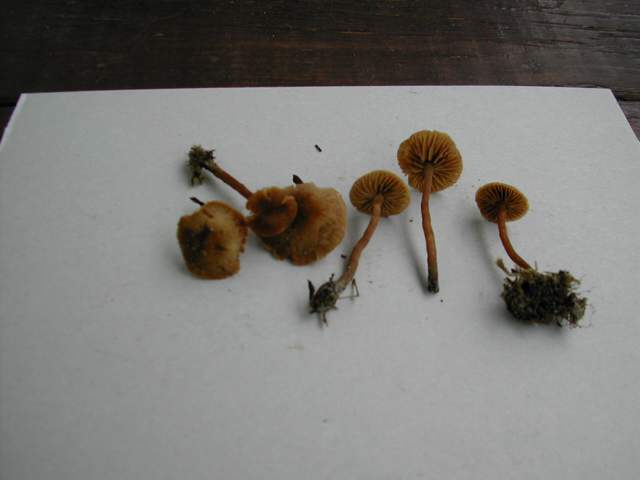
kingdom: Fungi
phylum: Basidiomycota
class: Agaricomycetes
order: Agaricales
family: Hymenogastraceae
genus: Naucoria
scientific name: Naucoria escharioides
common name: lys elle-knaphat
